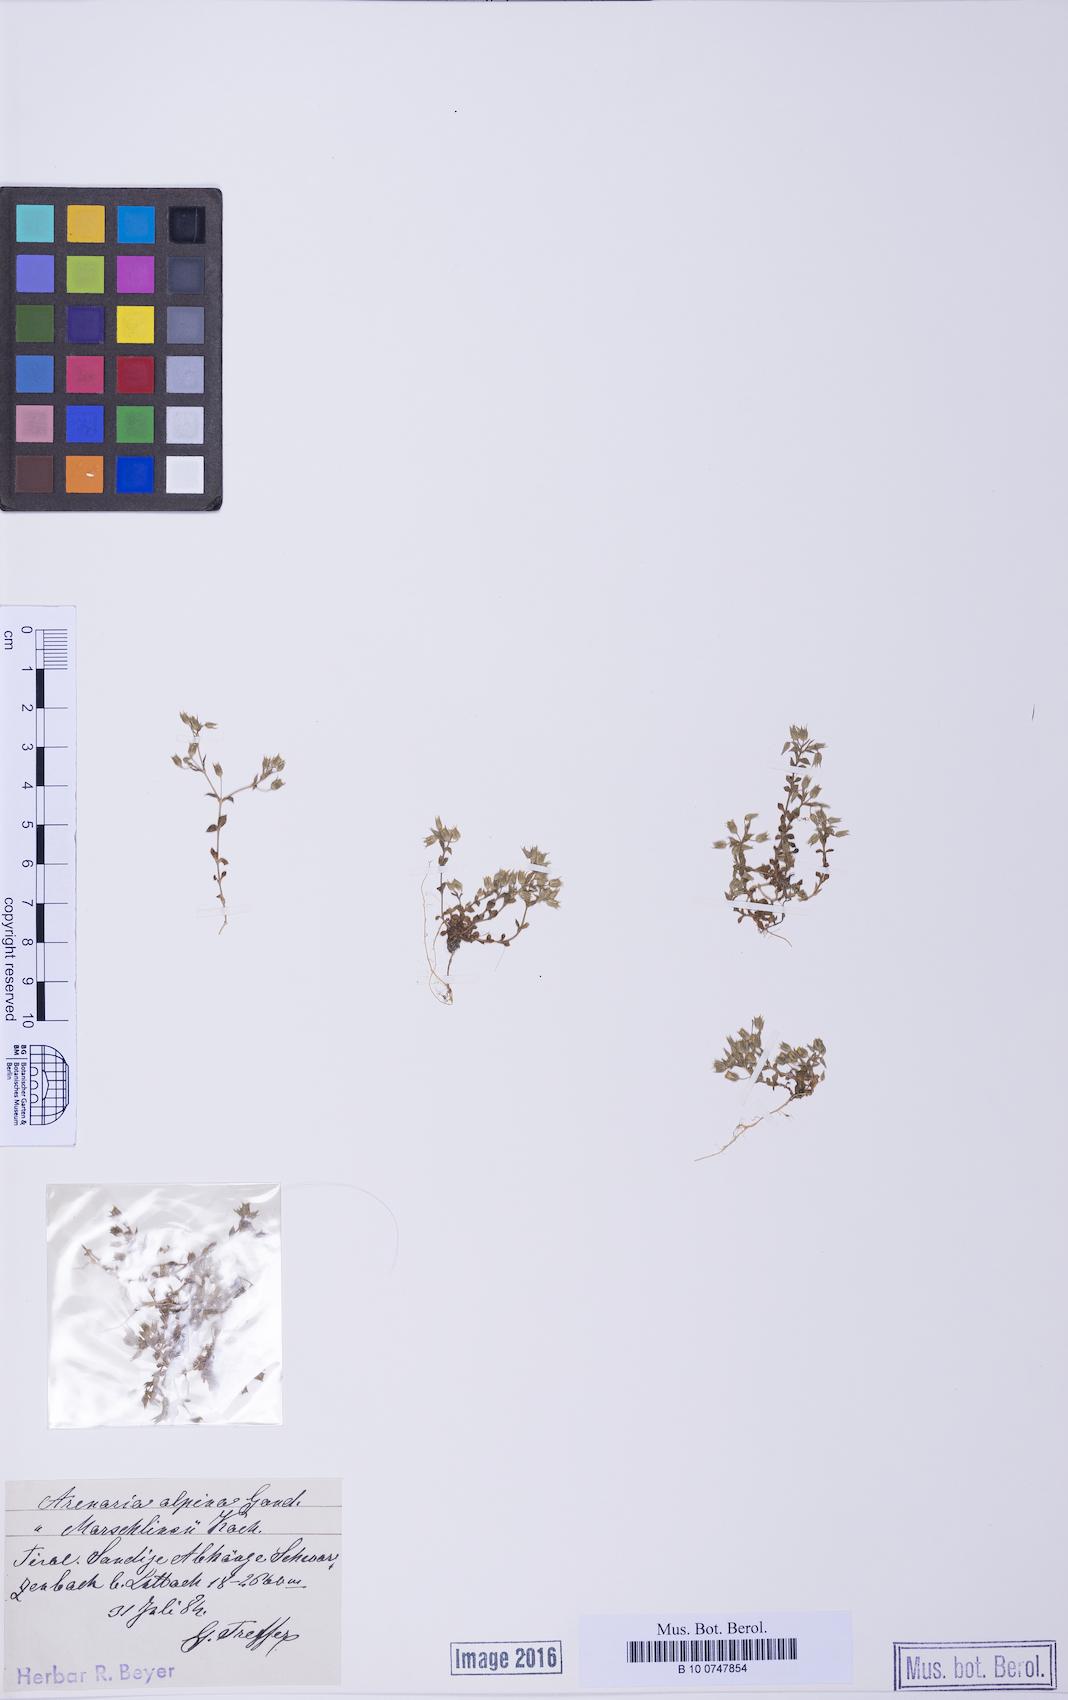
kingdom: Plantae
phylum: Tracheophyta
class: Magnoliopsida
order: Caryophyllales
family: Caryophyllaceae
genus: Arenaria
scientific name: Arenaria marschlinsii
